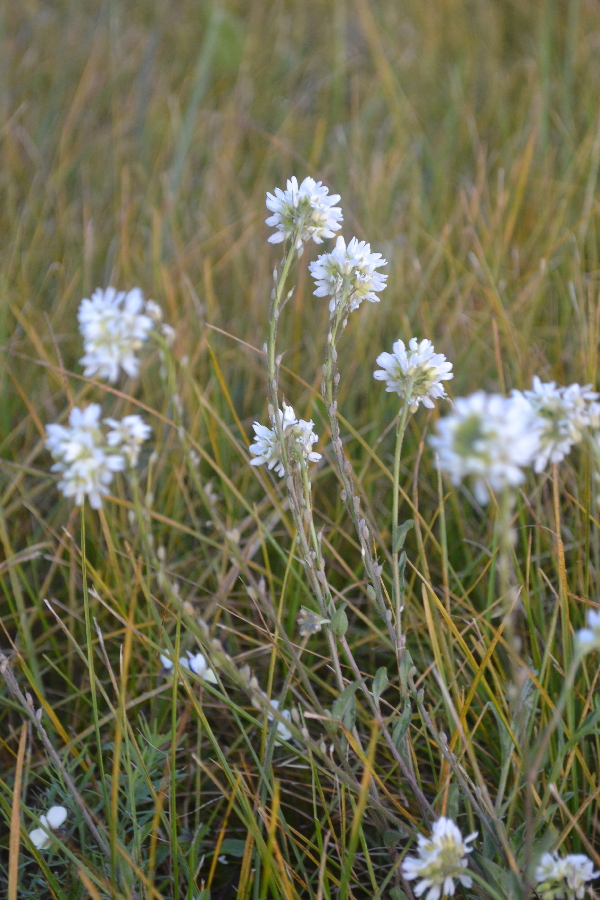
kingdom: Plantae
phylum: Tracheophyta
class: Magnoliopsida
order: Brassicales
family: Brassicaceae
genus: Berteroa
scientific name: Berteroa incana
